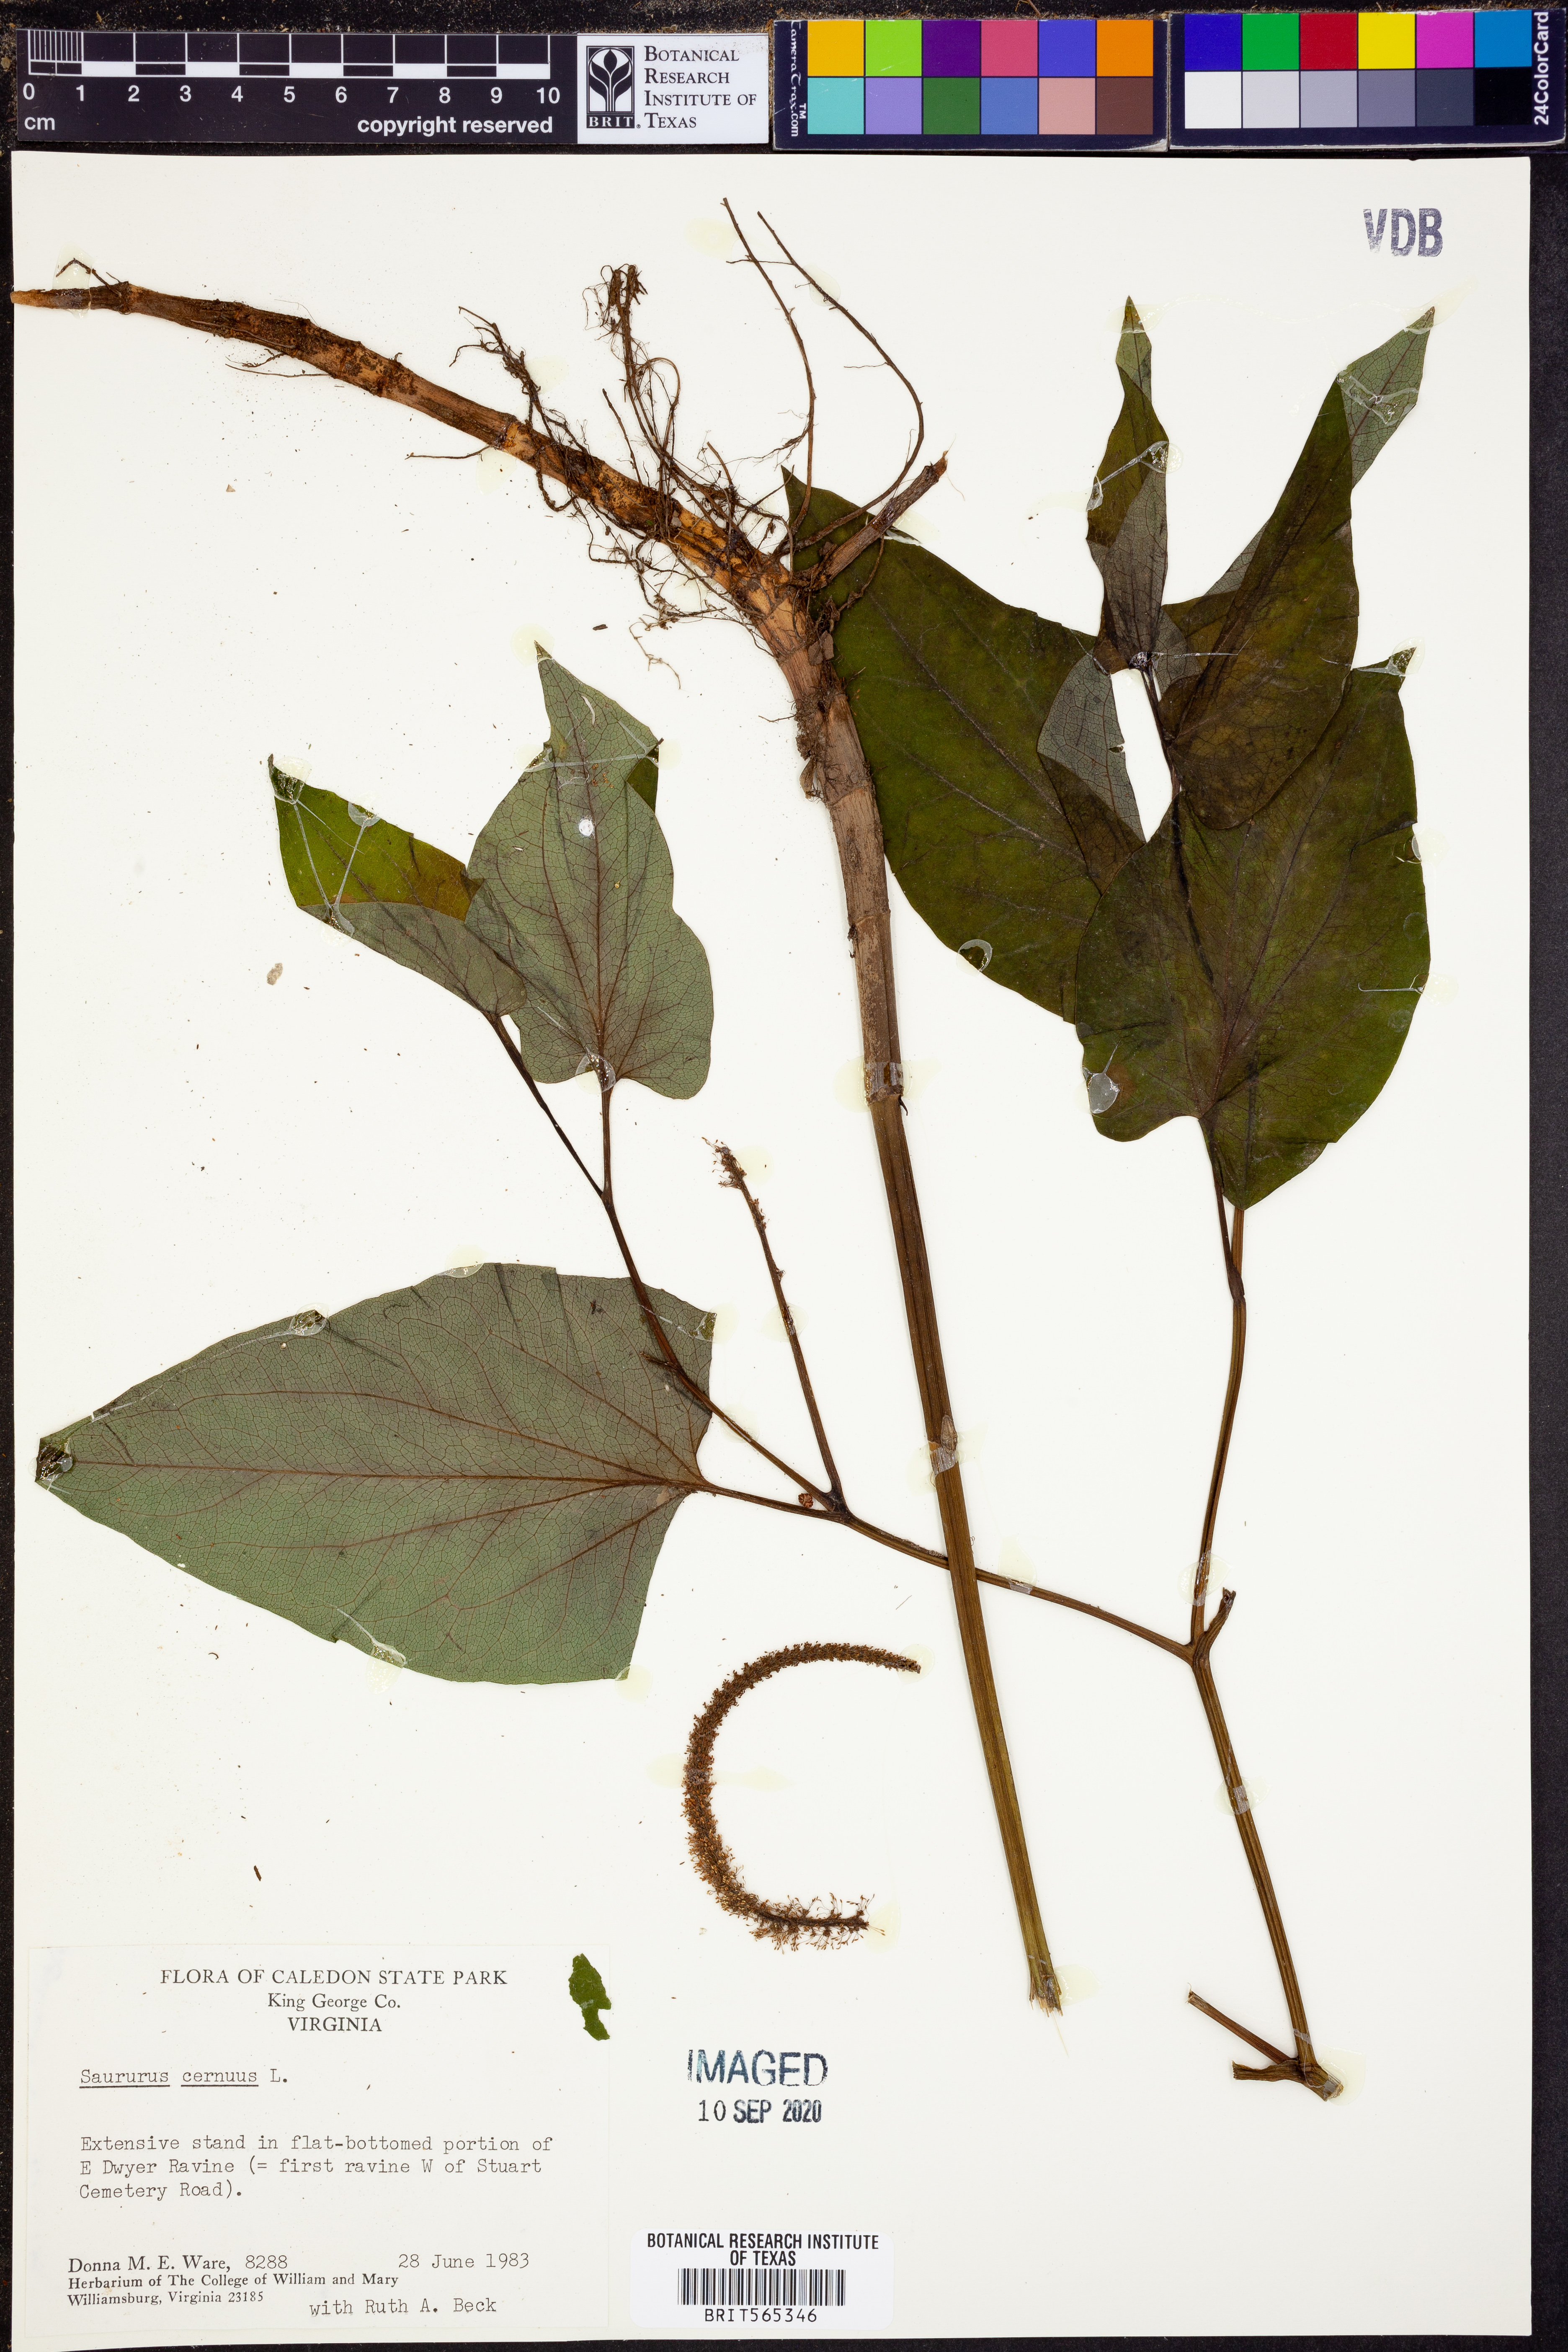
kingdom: Plantae
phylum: Tracheophyta
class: Magnoliopsida
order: Piperales
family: Saururaceae
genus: Saururus
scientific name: Saururus cernuus
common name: Lizard's-tail
